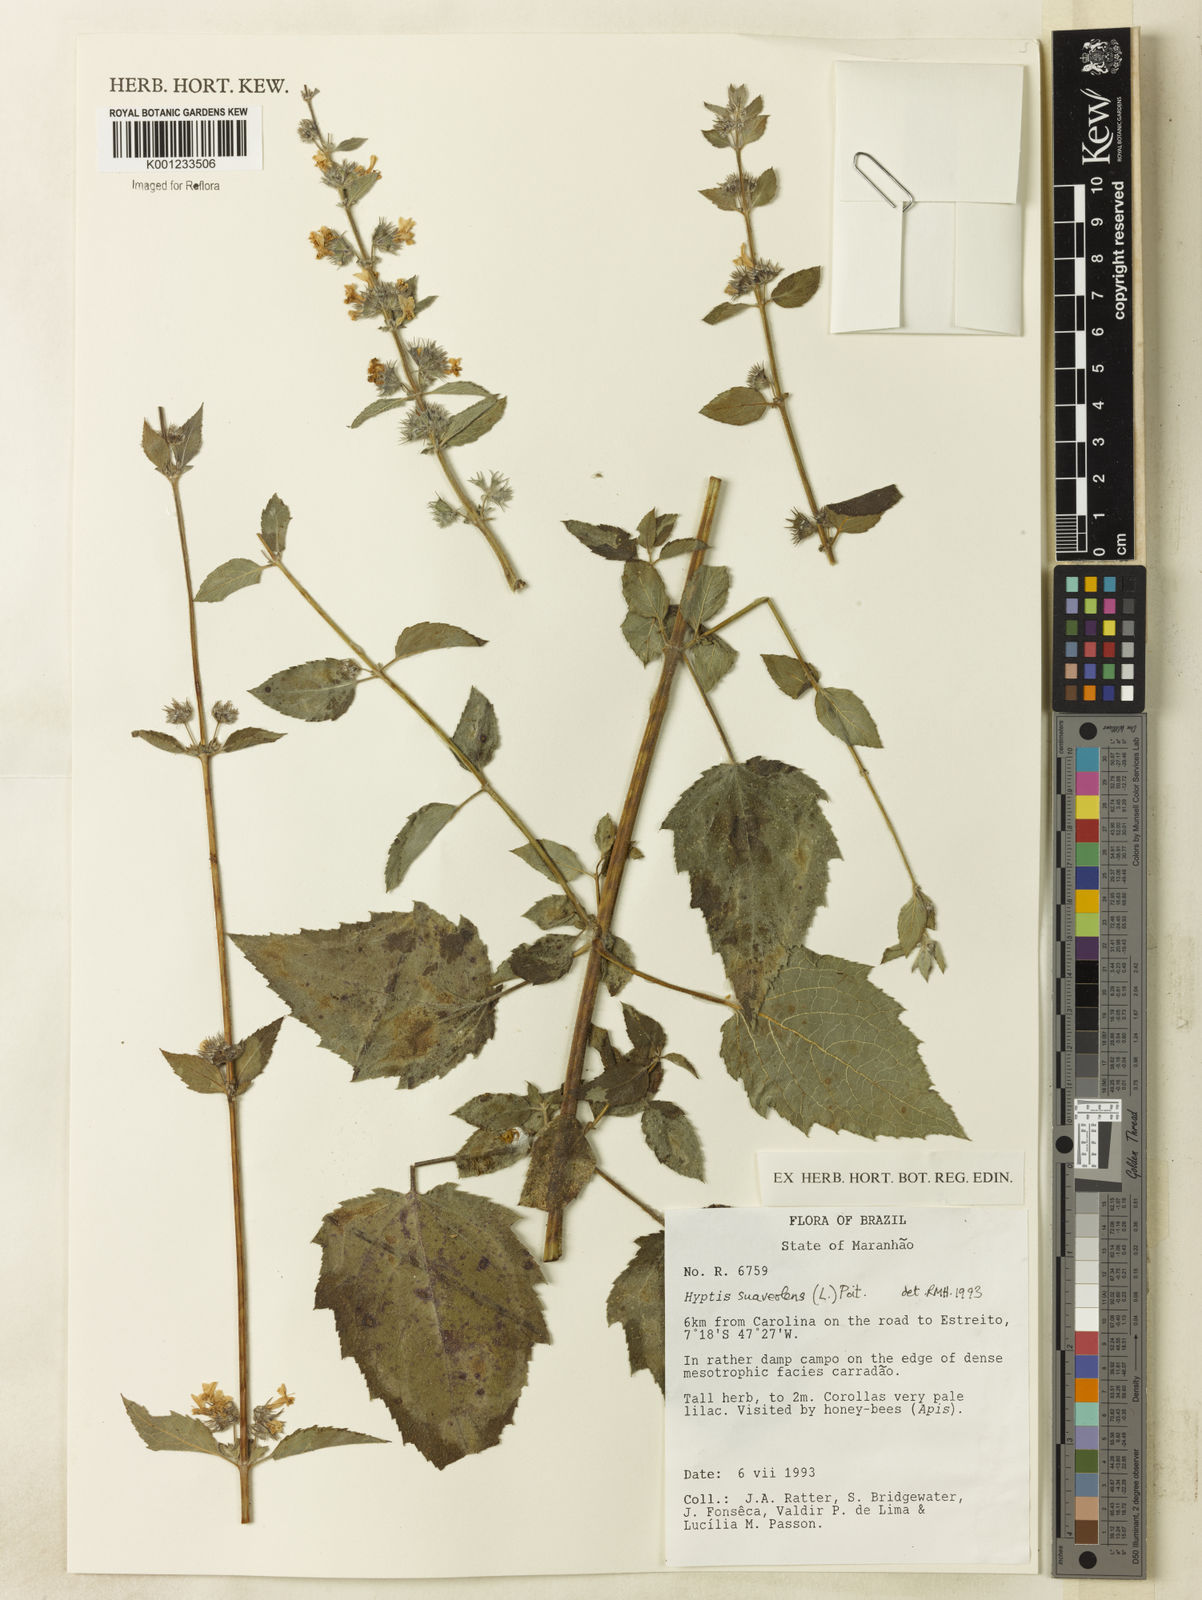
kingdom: Plantae
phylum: Tracheophyta
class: Magnoliopsida
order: Lamiales
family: Lamiaceae
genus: Mesosphaerum
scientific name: Mesosphaerum suaveolens
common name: Pignut
